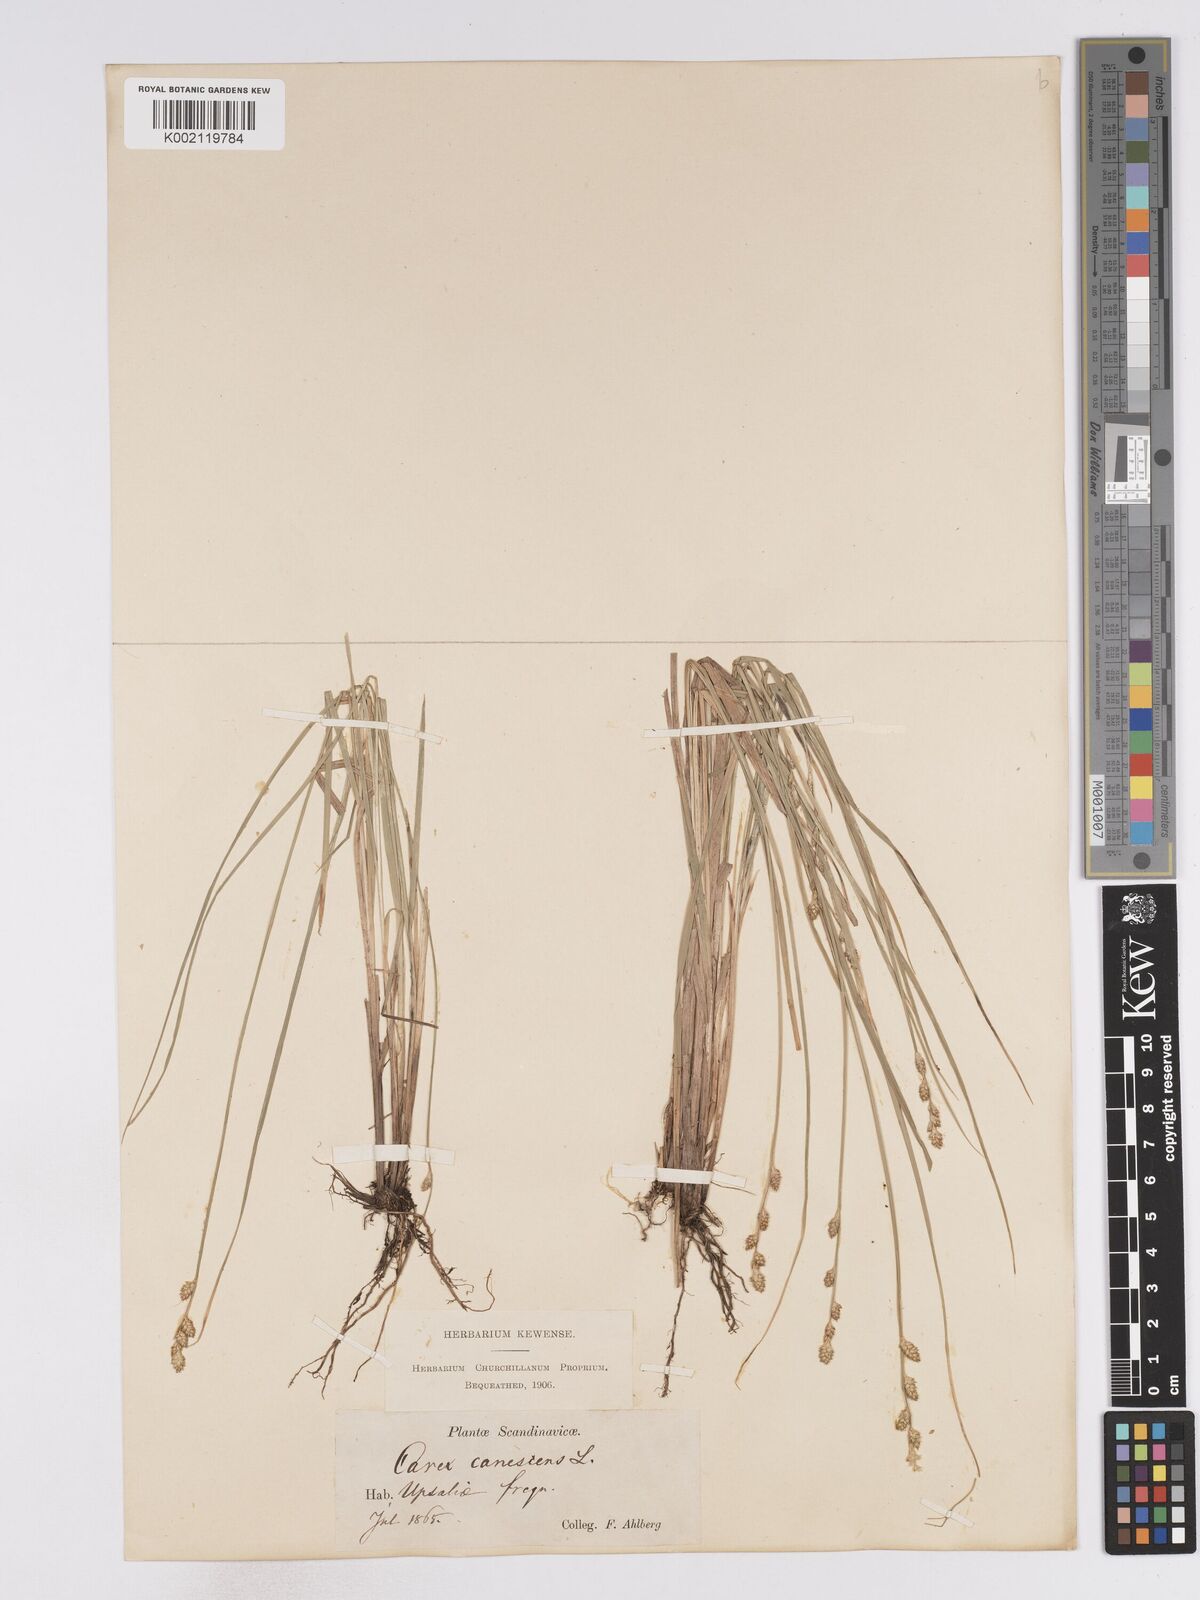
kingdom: Plantae
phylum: Tracheophyta
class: Liliopsida
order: Poales
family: Cyperaceae
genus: Carex
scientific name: Carex curta
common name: White sedge
